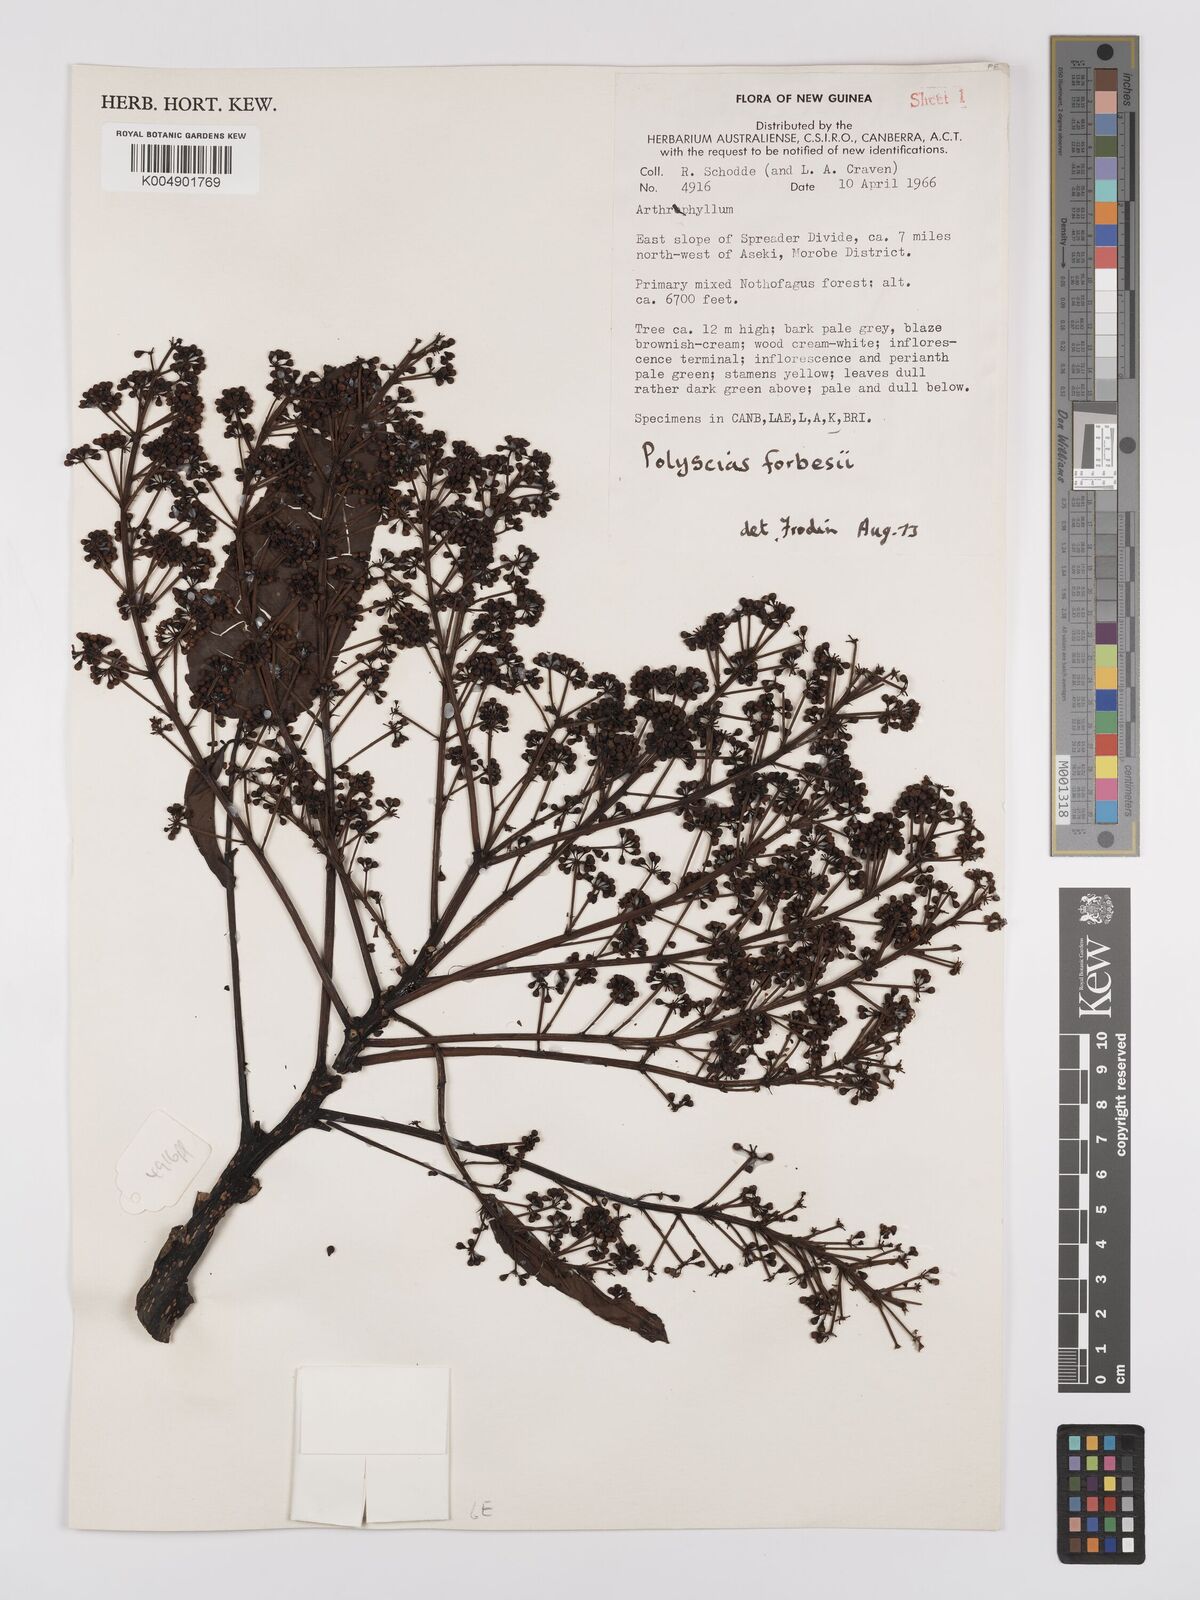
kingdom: Plantae
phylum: Tracheophyta
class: Magnoliopsida
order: Apiales
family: Araliaceae
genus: Polyscias
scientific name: Polyscias ledermannii
